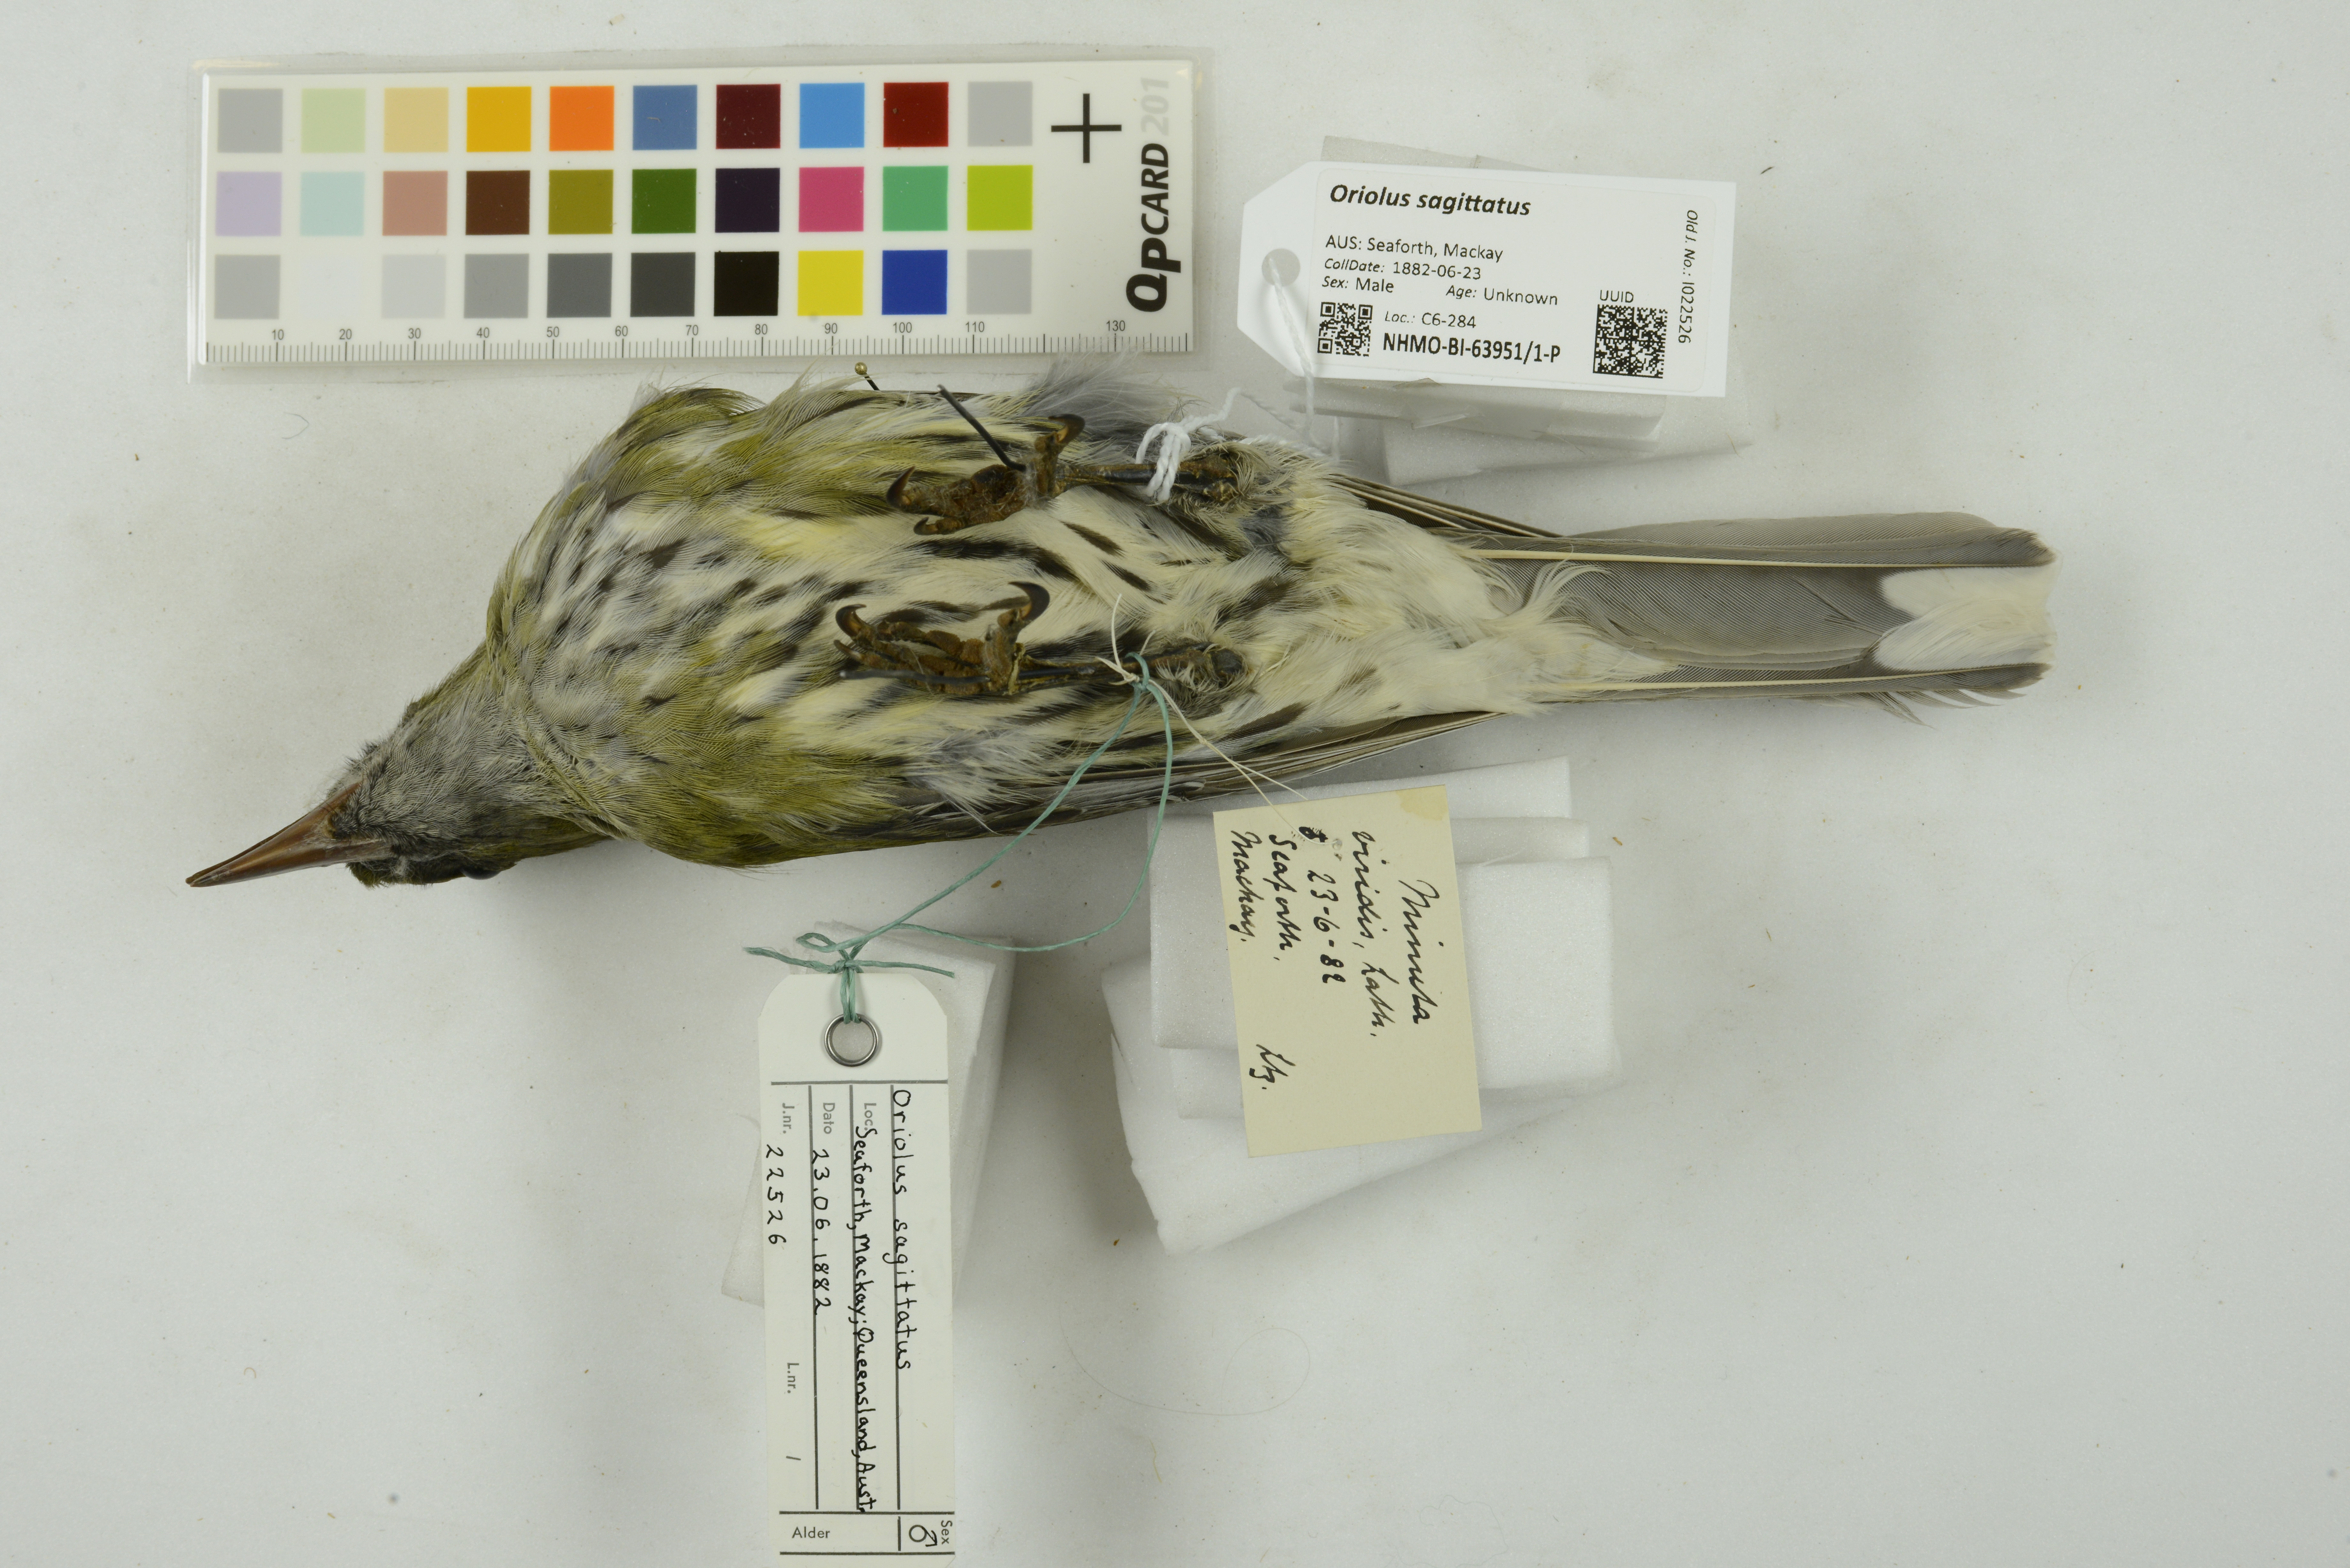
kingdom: Animalia
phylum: Chordata
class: Aves
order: Passeriformes
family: Oriolidae
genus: Oriolus
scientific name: Oriolus sagittatus
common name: Olive-backed oriole
